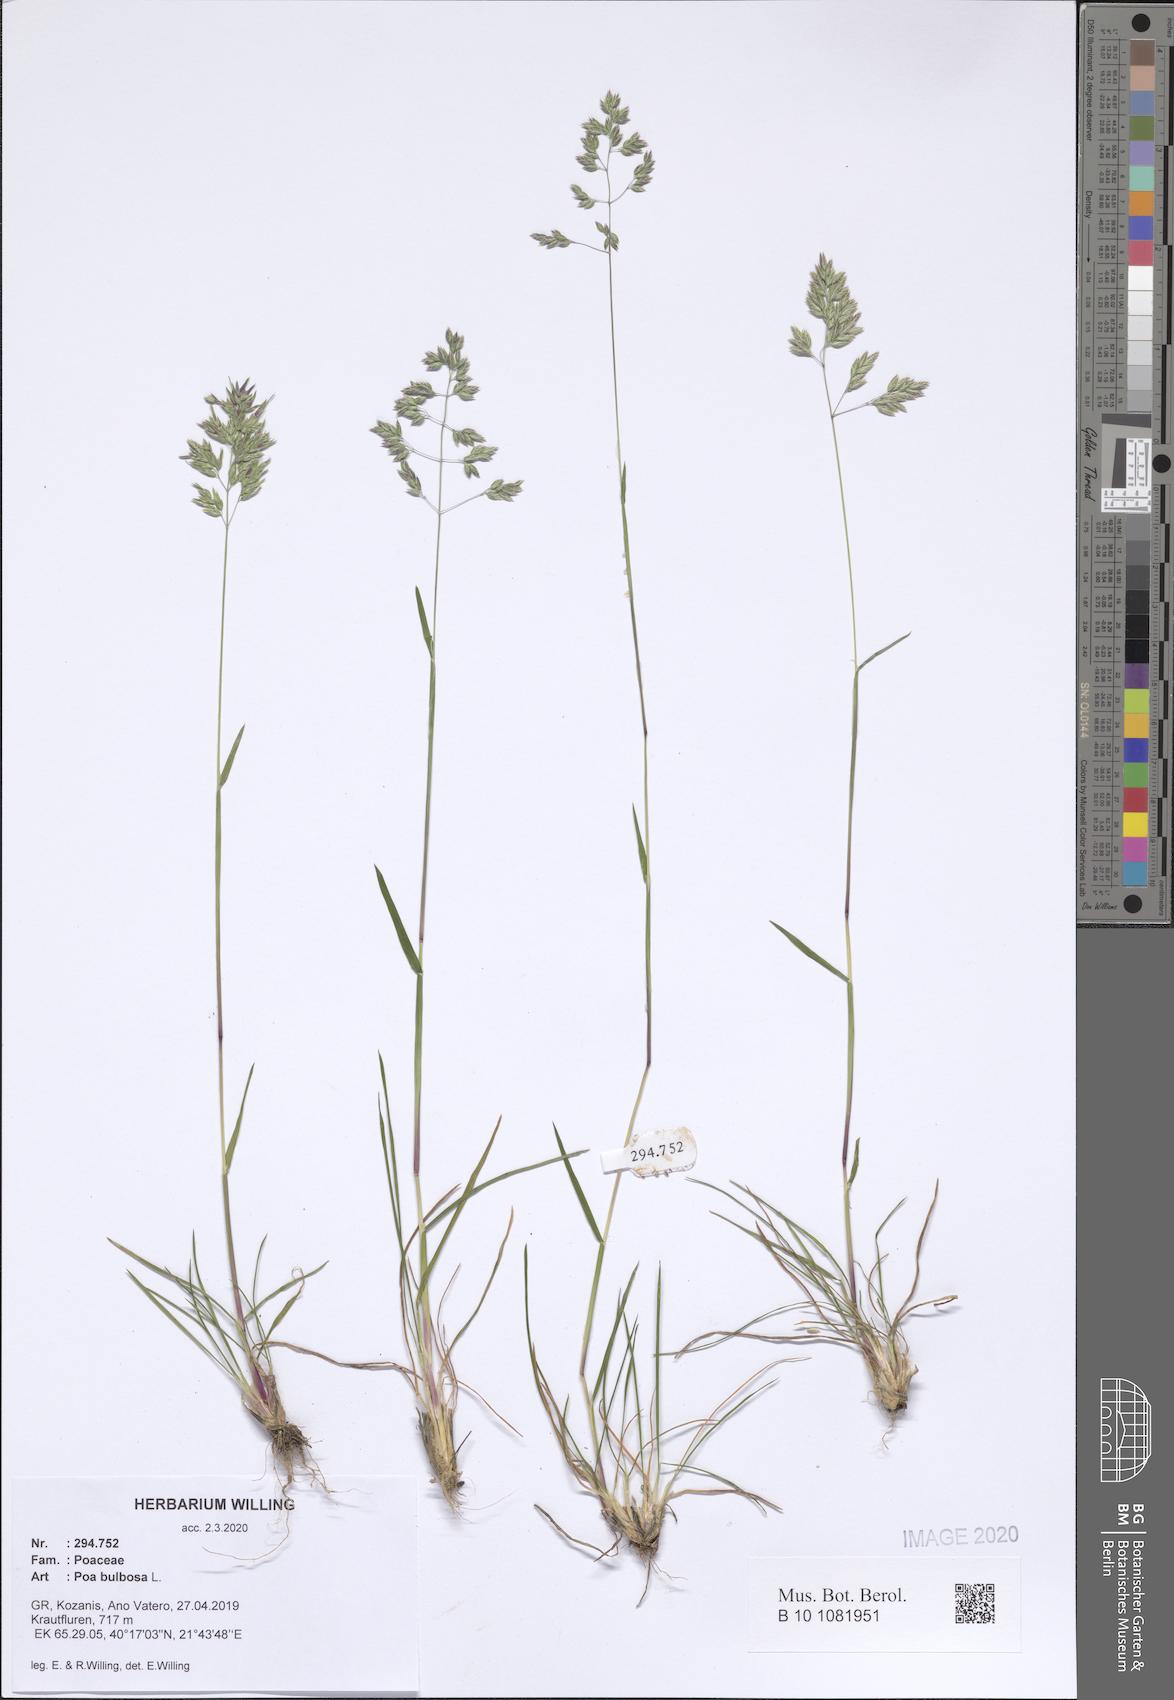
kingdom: Plantae
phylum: Tracheophyta
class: Liliopsida
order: Poales
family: Poaceae
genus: Poa
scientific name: Poa bulbosa
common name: Bulbous bluegrass
